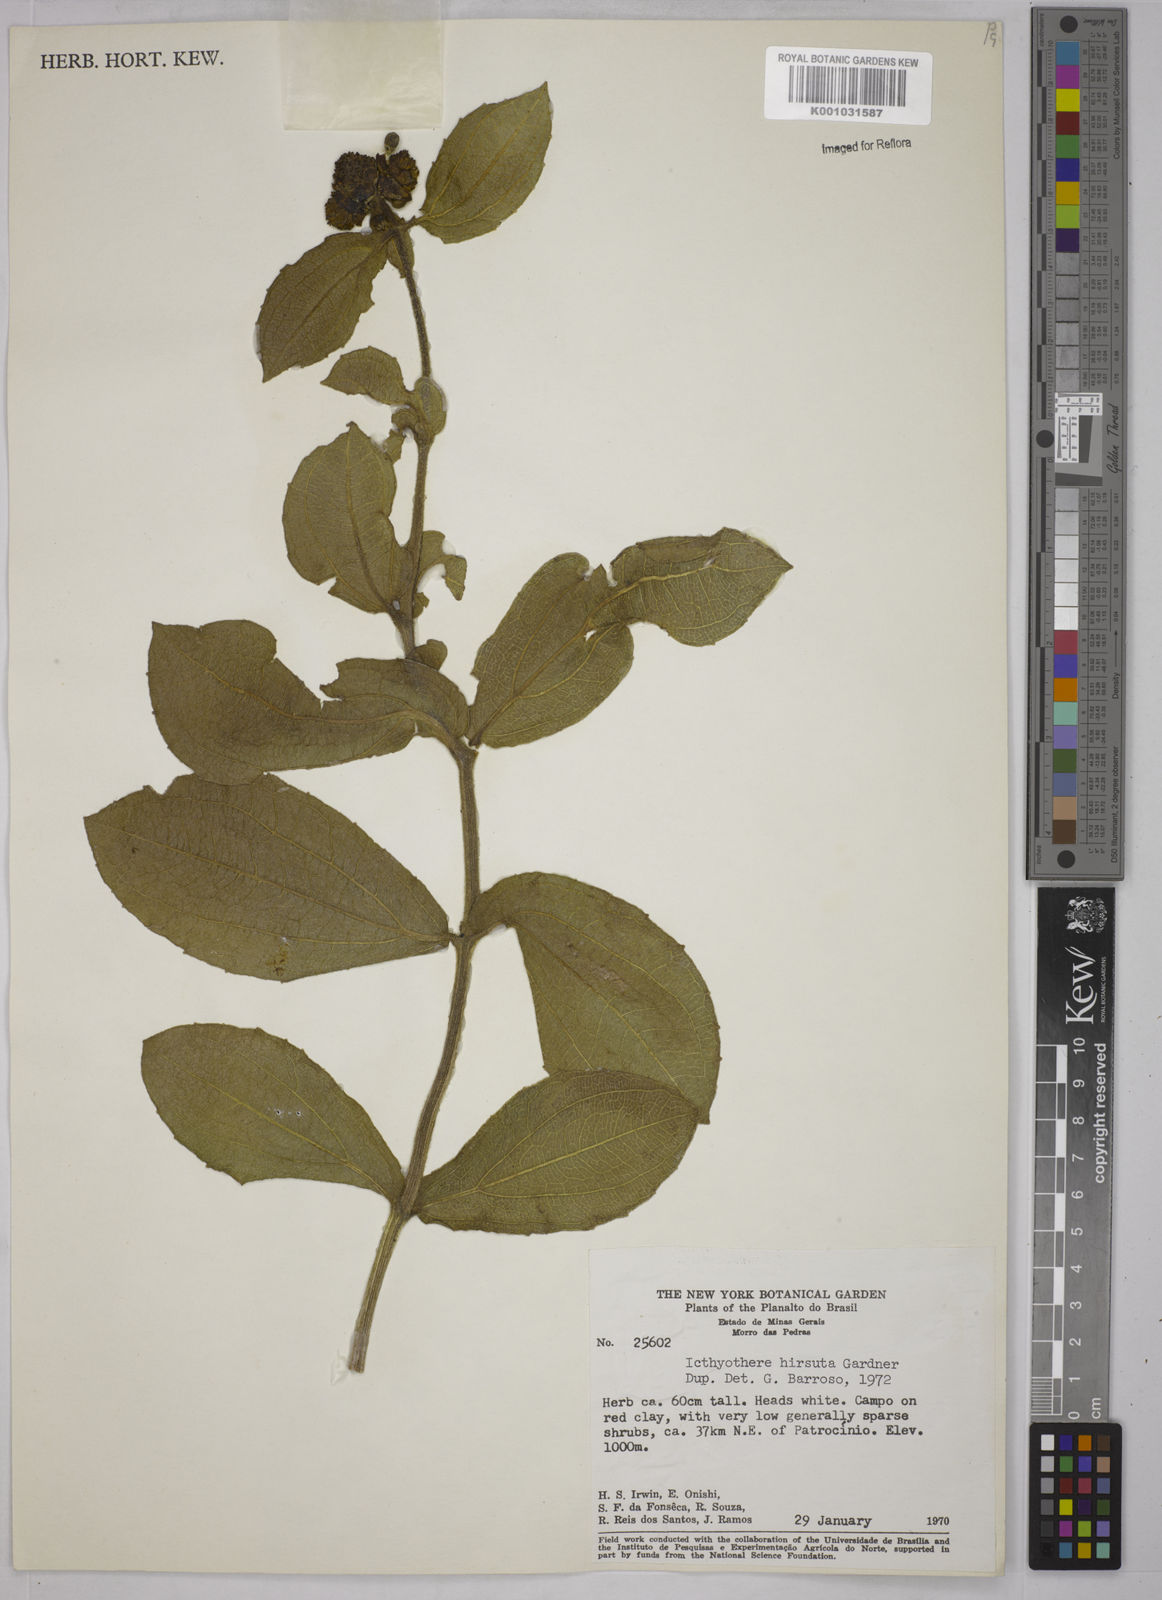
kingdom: Plantae
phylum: Tracheophyta
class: Magnoliopsida
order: Asterales
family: Asteraceae
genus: Ichthyothere
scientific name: Ichthyothere hirsuta
